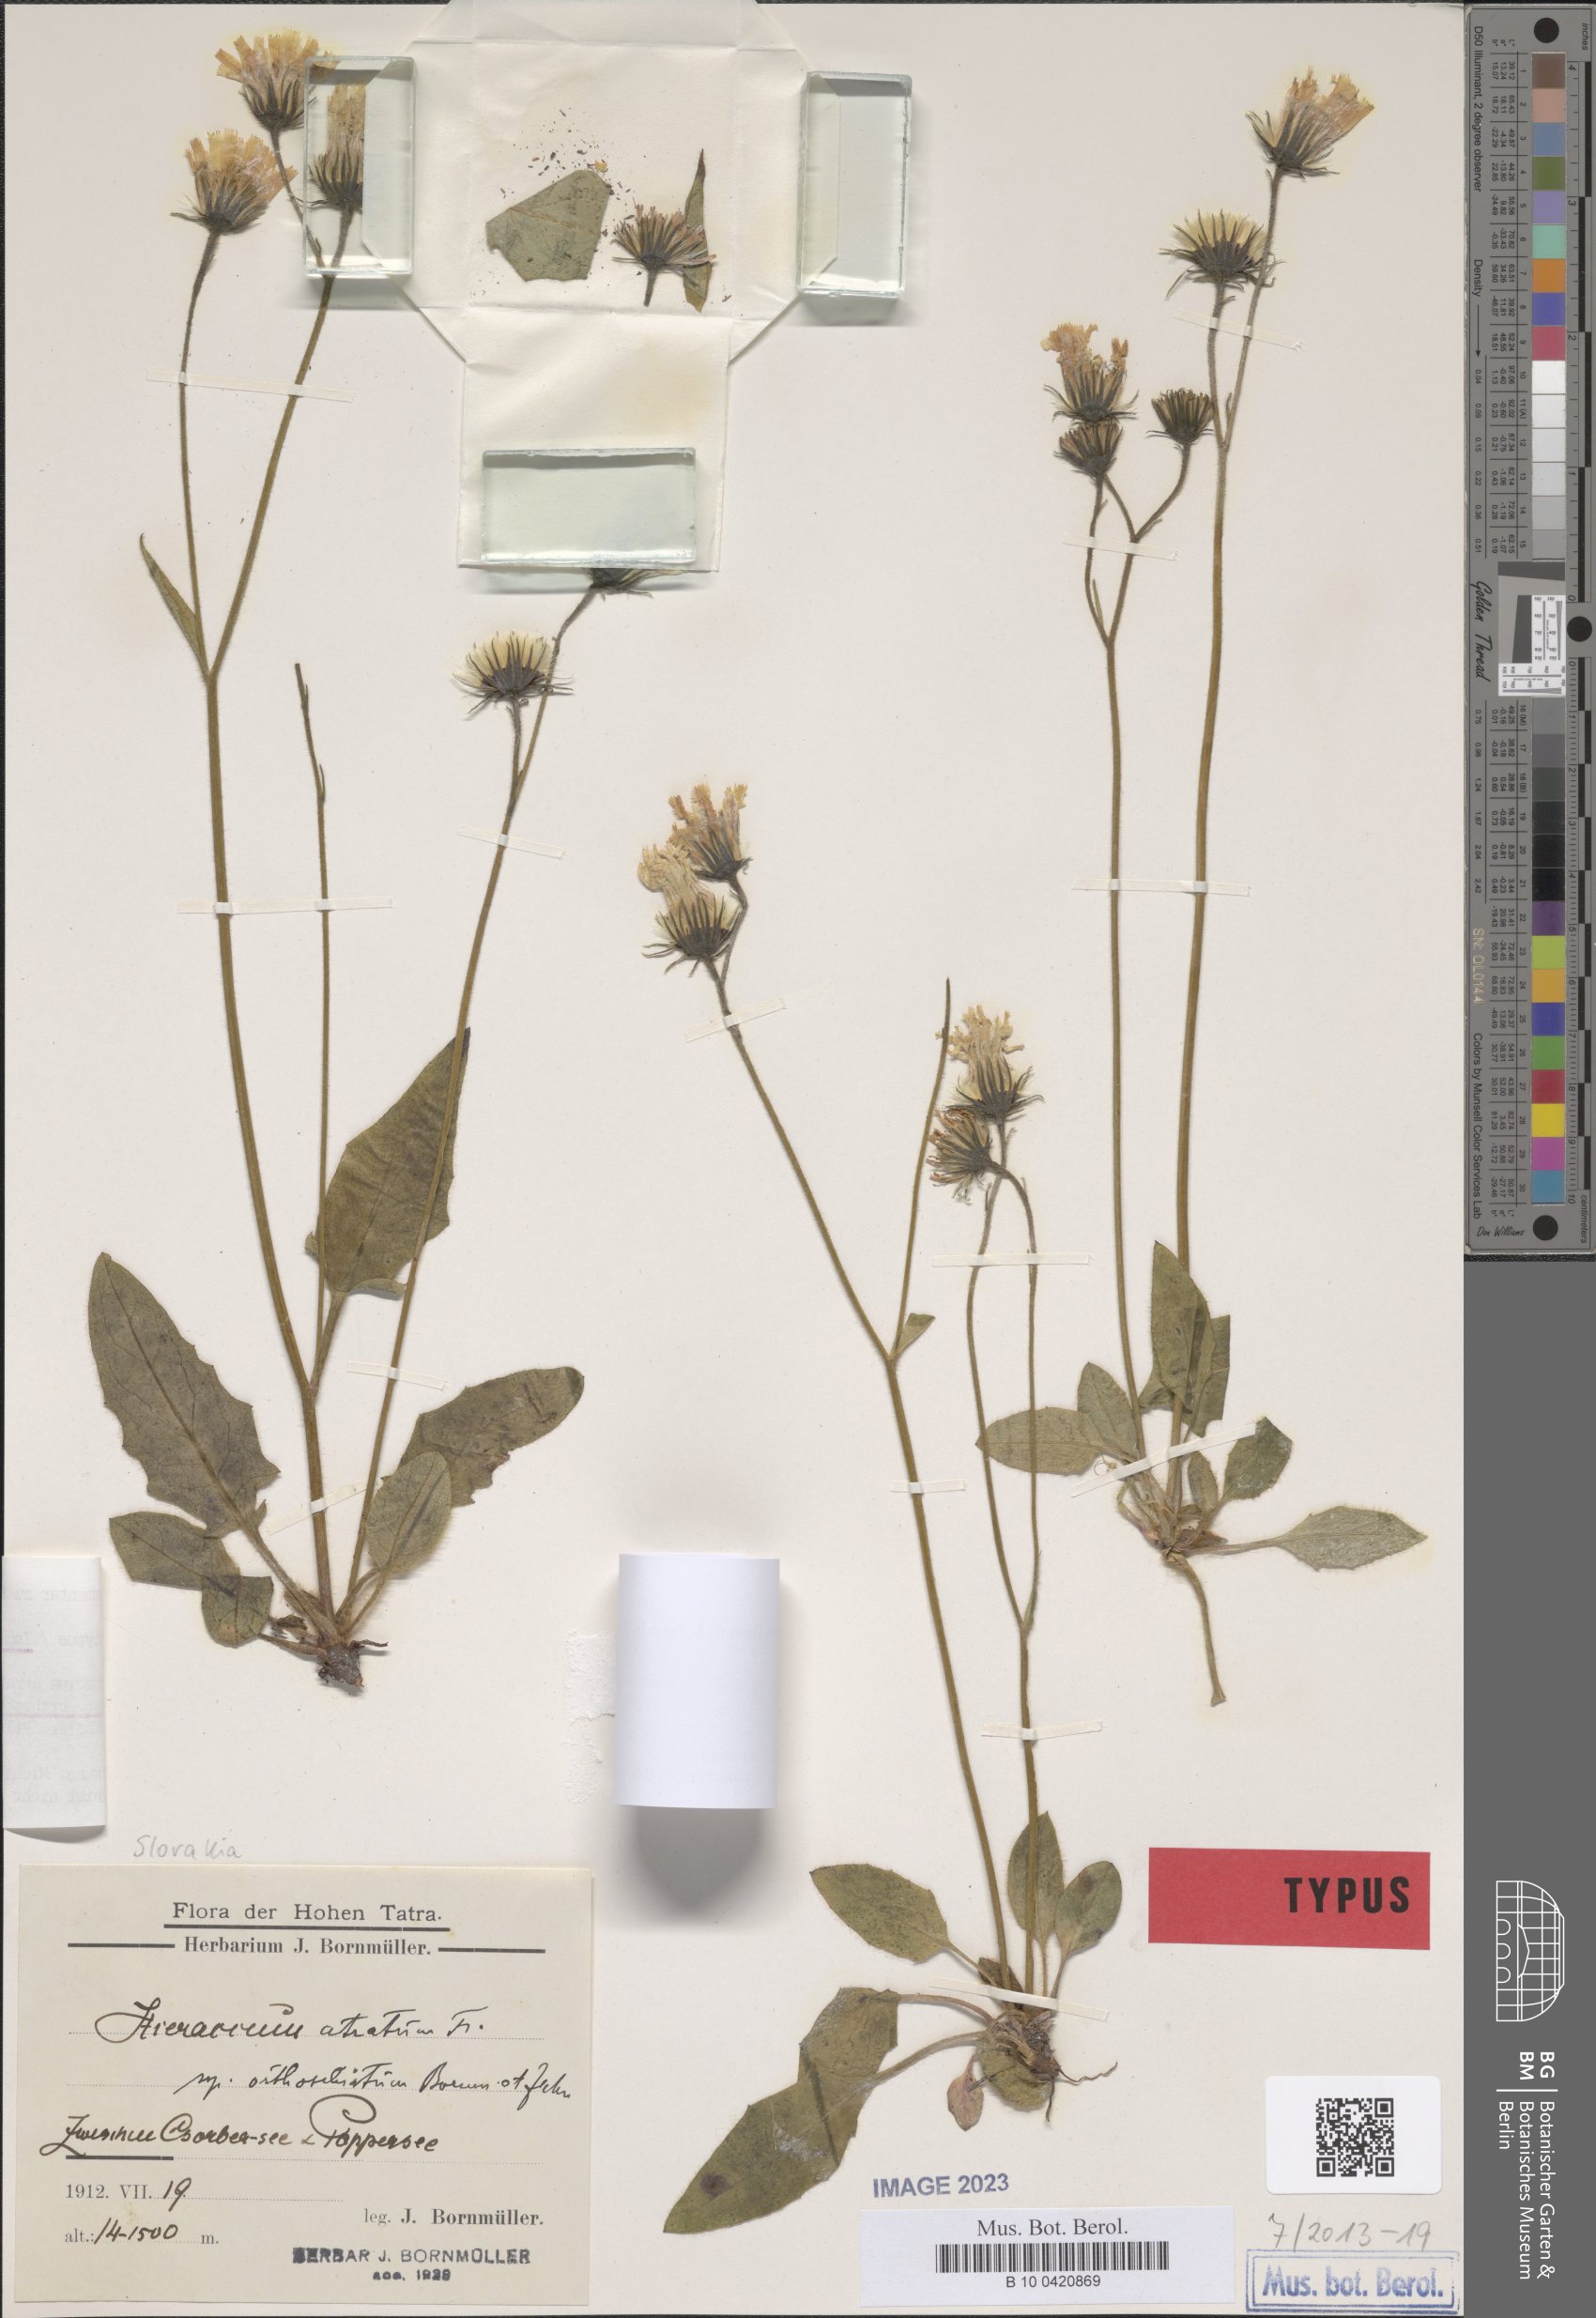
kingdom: Plantae
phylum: Tracheophyta
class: Magnoliopsida
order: Asterales
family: Asteraceae
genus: Hieracium
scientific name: Hieracium atratum
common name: Polar hawkweed
